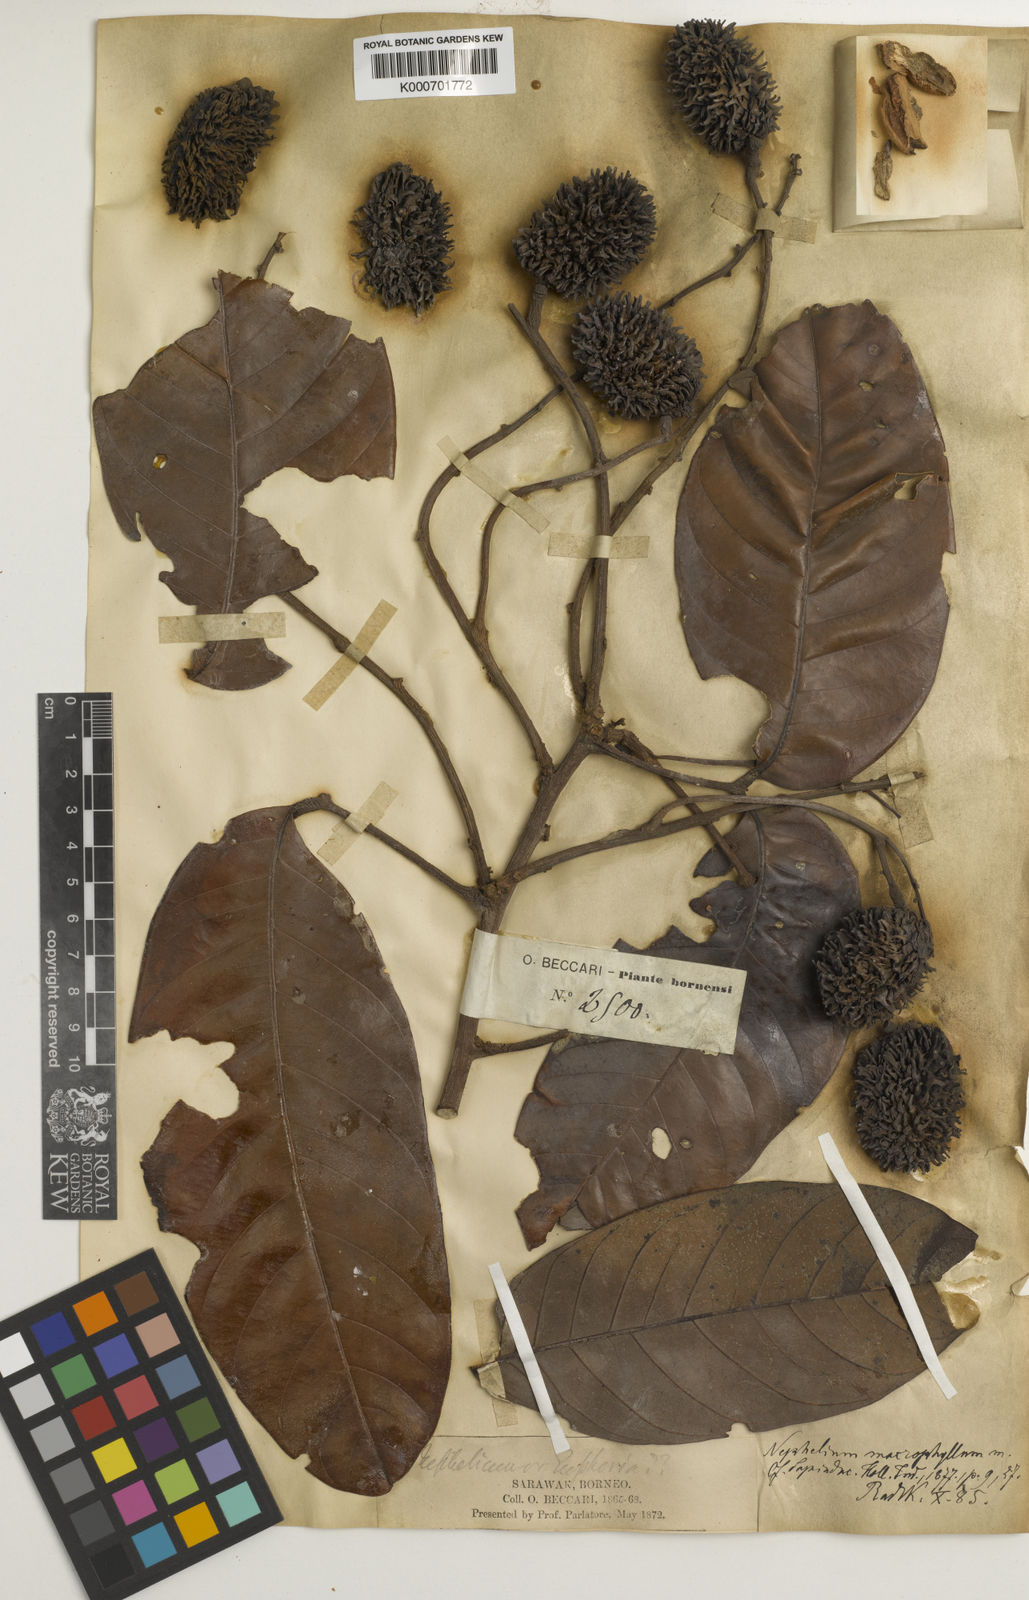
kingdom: Plantae
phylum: Tracheophyta
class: Magnoliopsida
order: Sapindales
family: Sapindaceae
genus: Nephelium
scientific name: Nephelium macrophyllum
